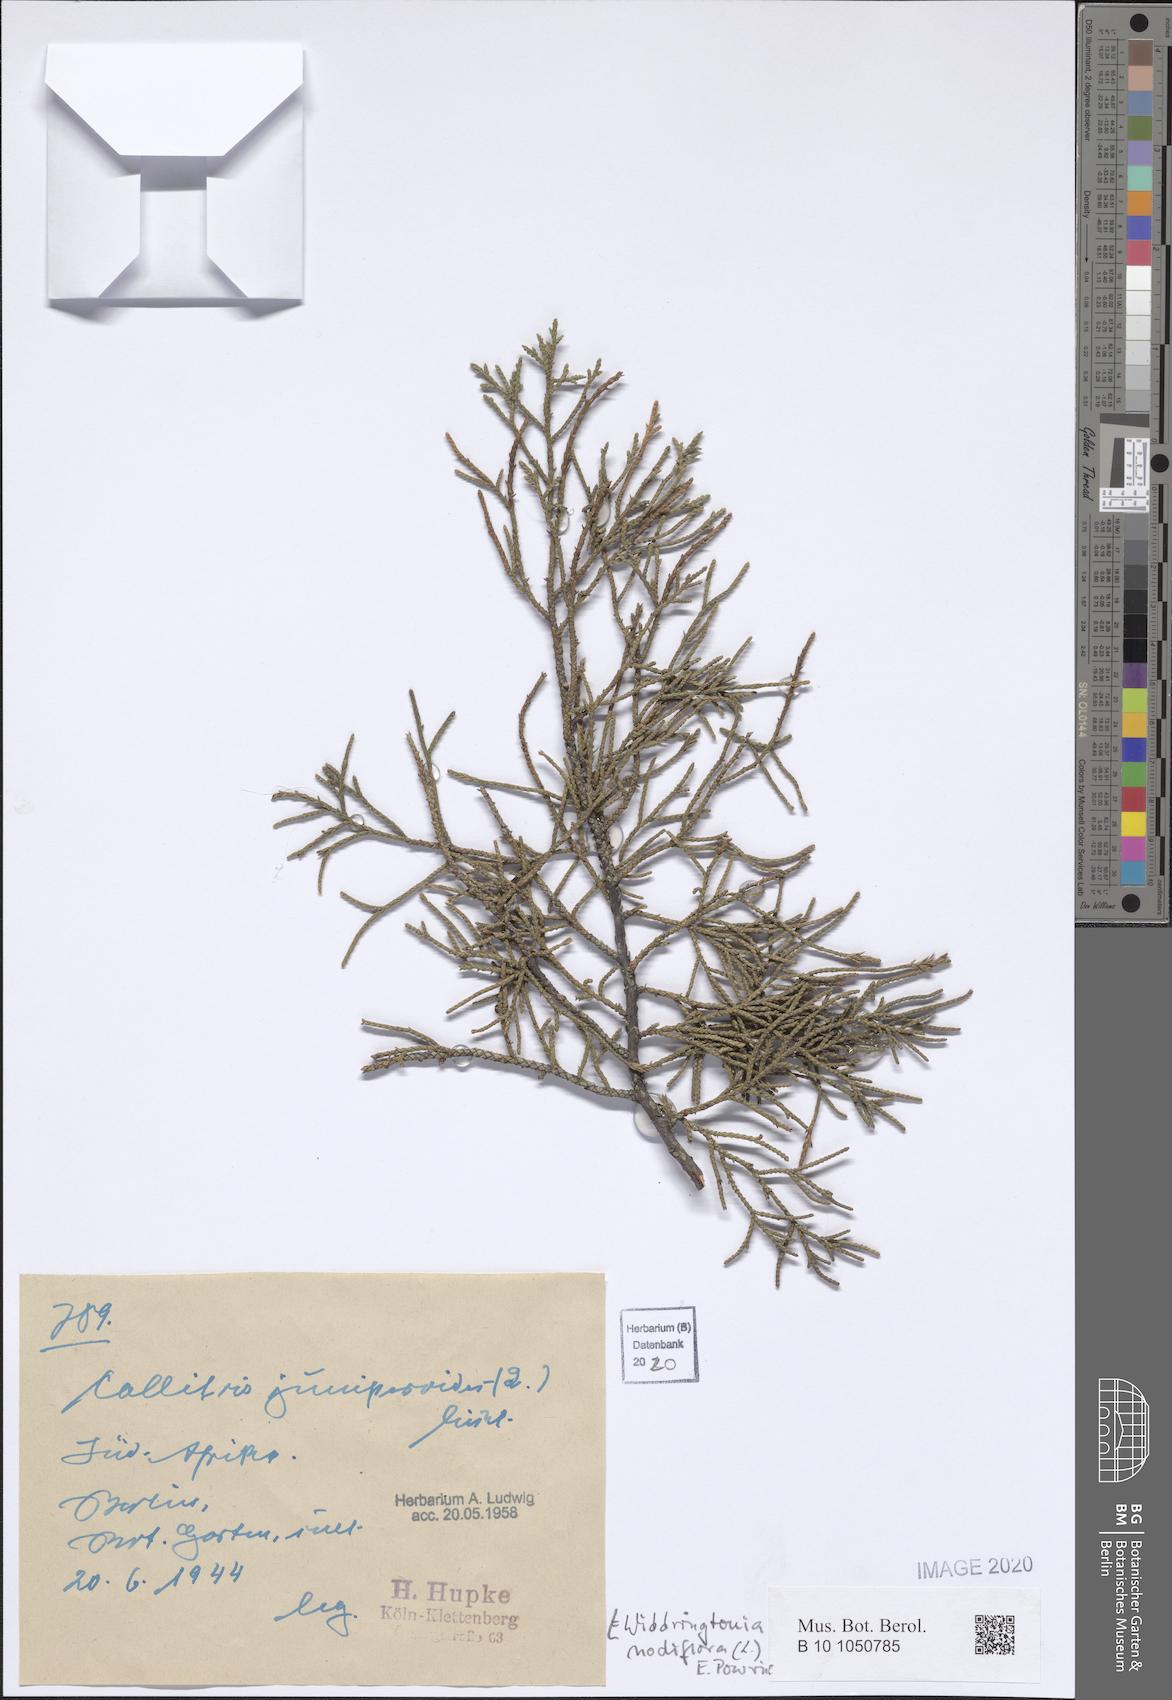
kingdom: Plantae
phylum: Tracheophyta
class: Pinopsida
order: Pinales
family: Cupressaceae
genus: Widdringtonia
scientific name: Widdringtonia nodiflora
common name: Cape cypress
